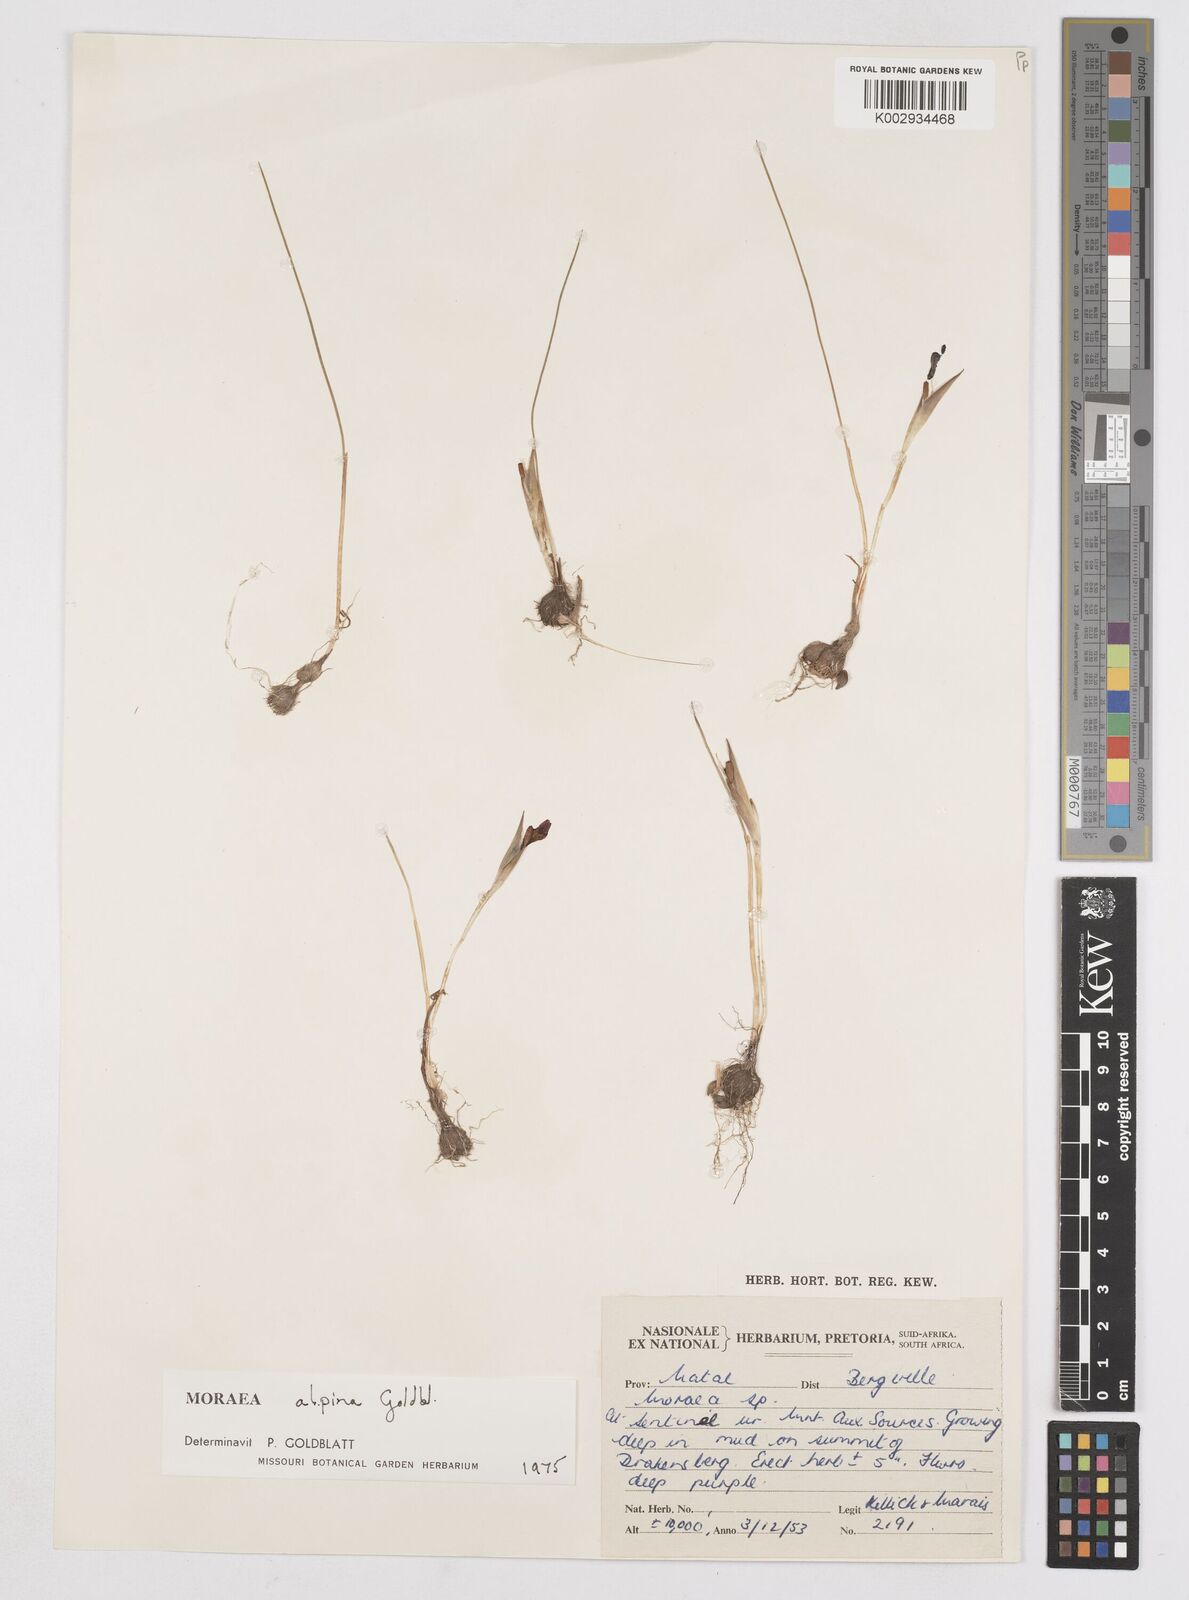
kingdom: Plantae
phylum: Tracheophyta
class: Liliopsida
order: Asparagales
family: Iridaceae
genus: Moraea
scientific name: Moraea alpina
